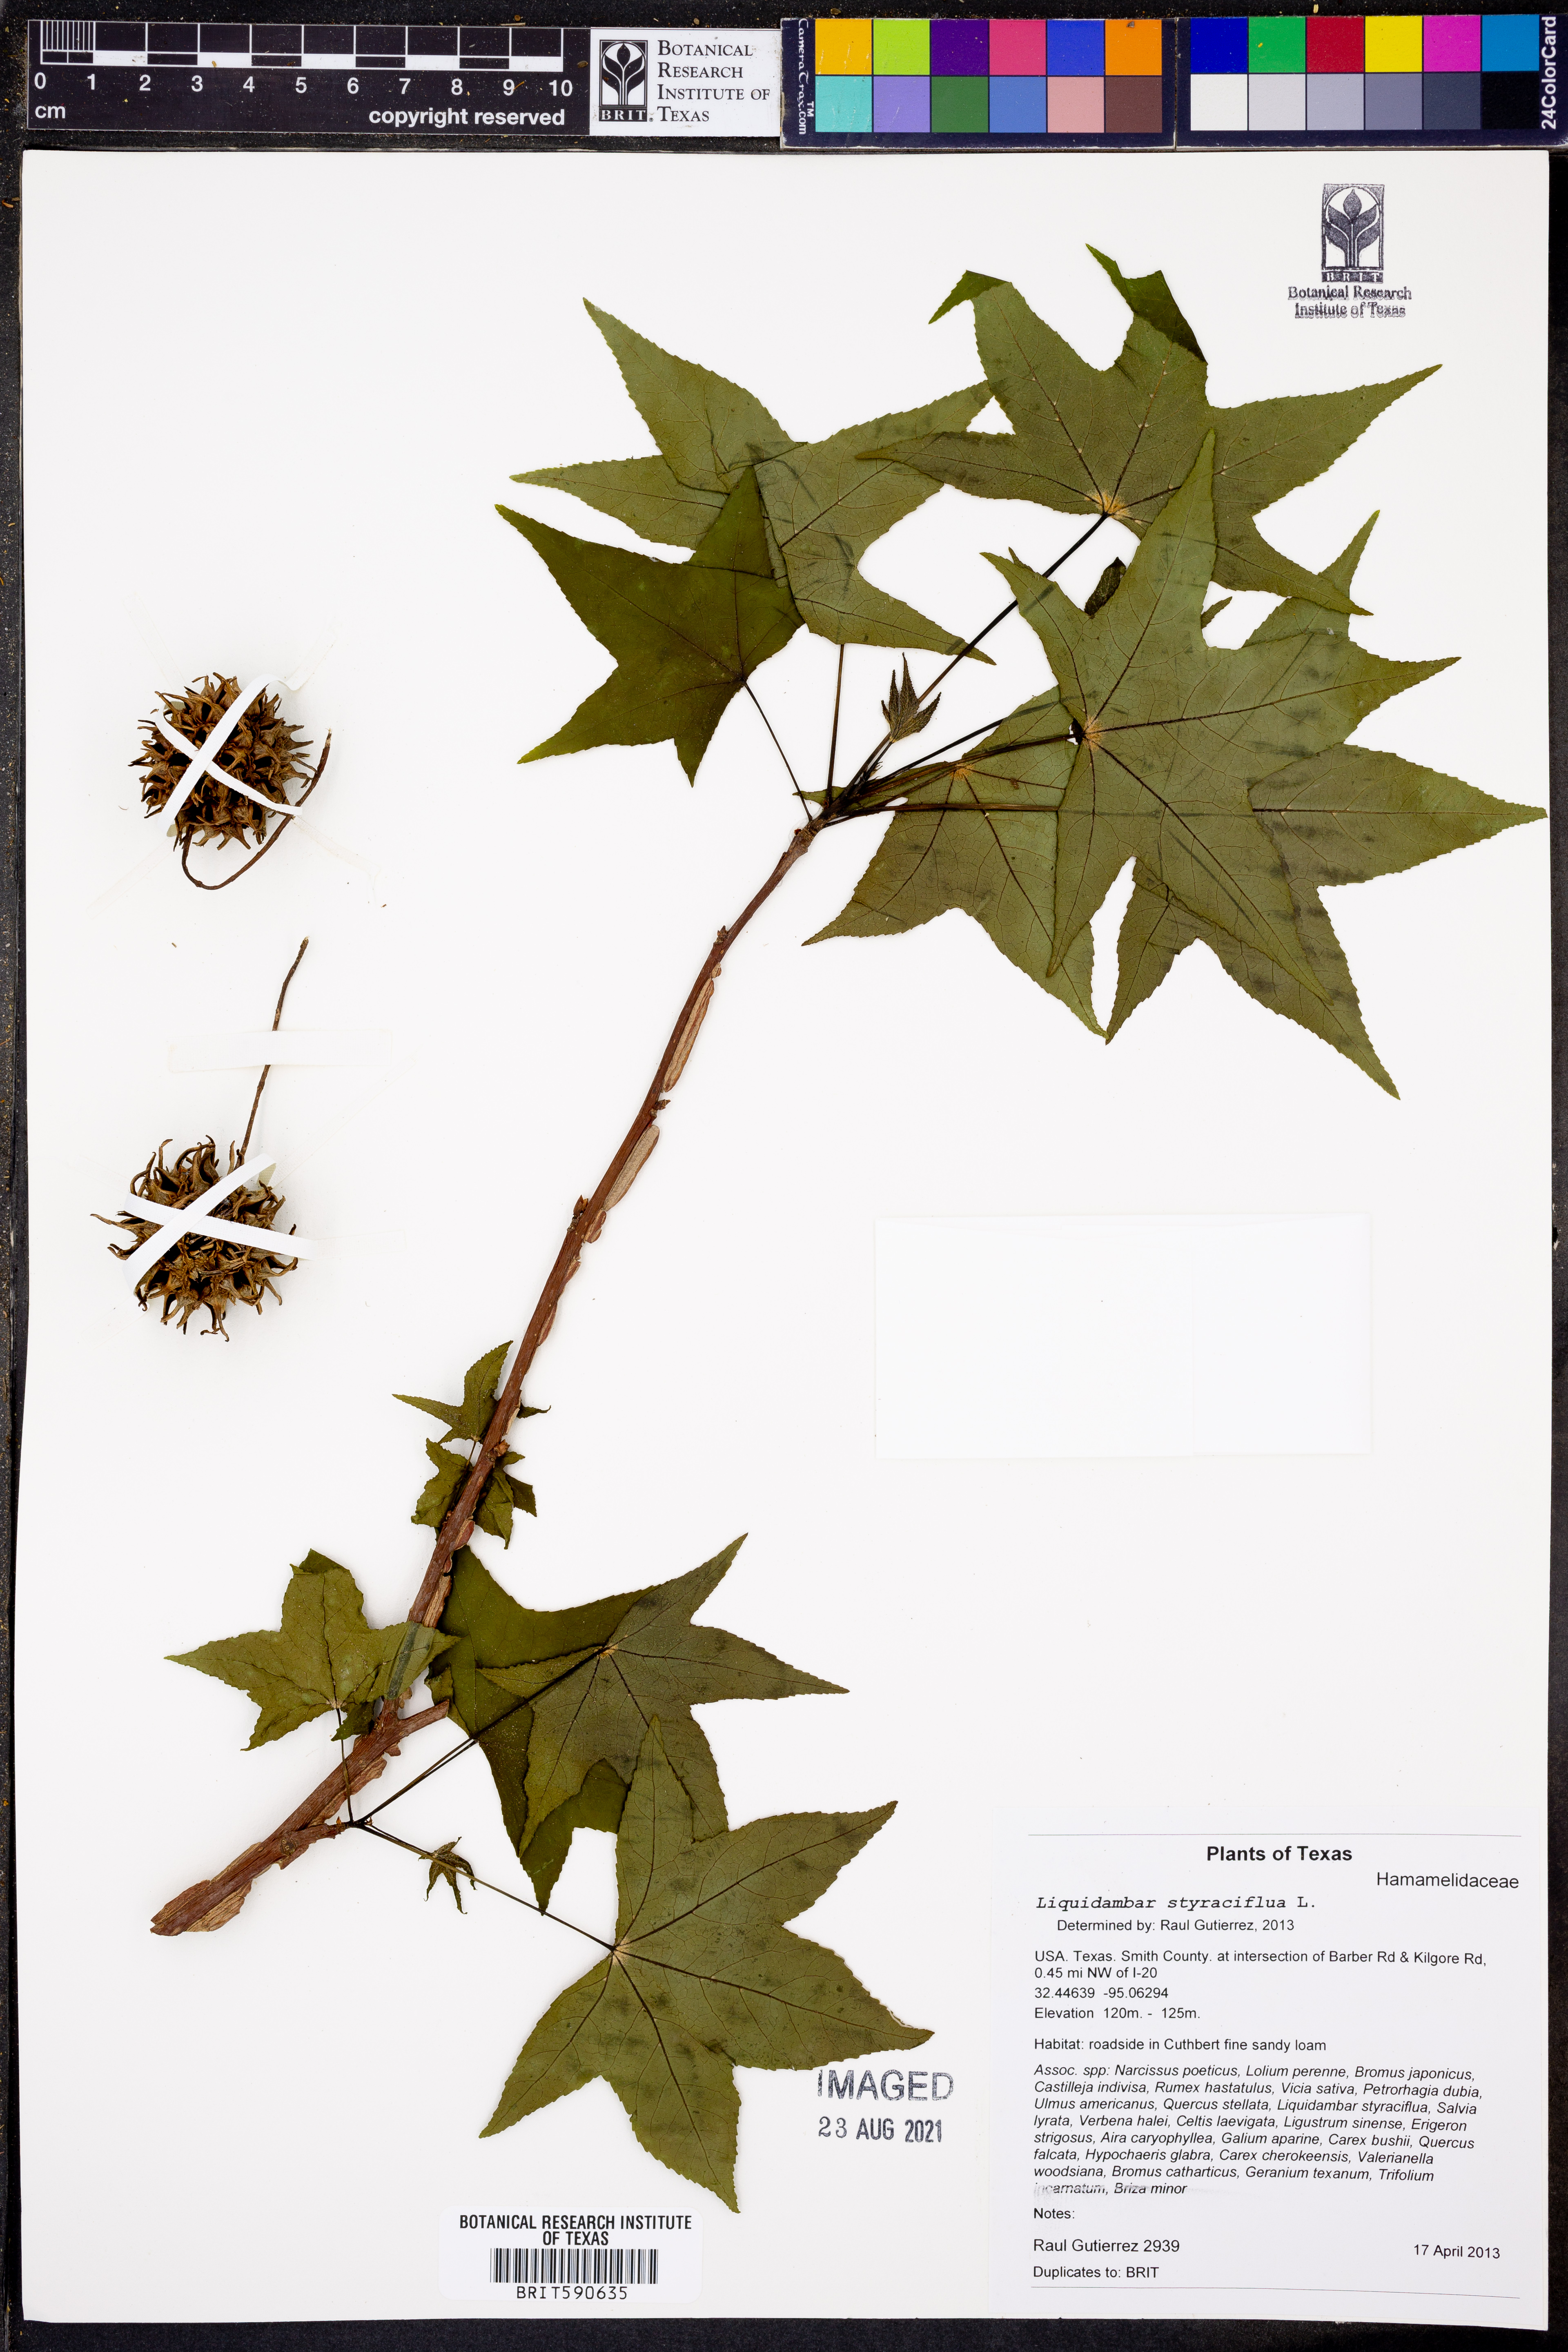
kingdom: Plantae
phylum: Tracheophyta
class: Magnoliopsida
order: Saxifragales
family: Altingiaceae
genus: Liquidambar
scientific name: Liquidambar styraciflua
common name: Sweet gum
